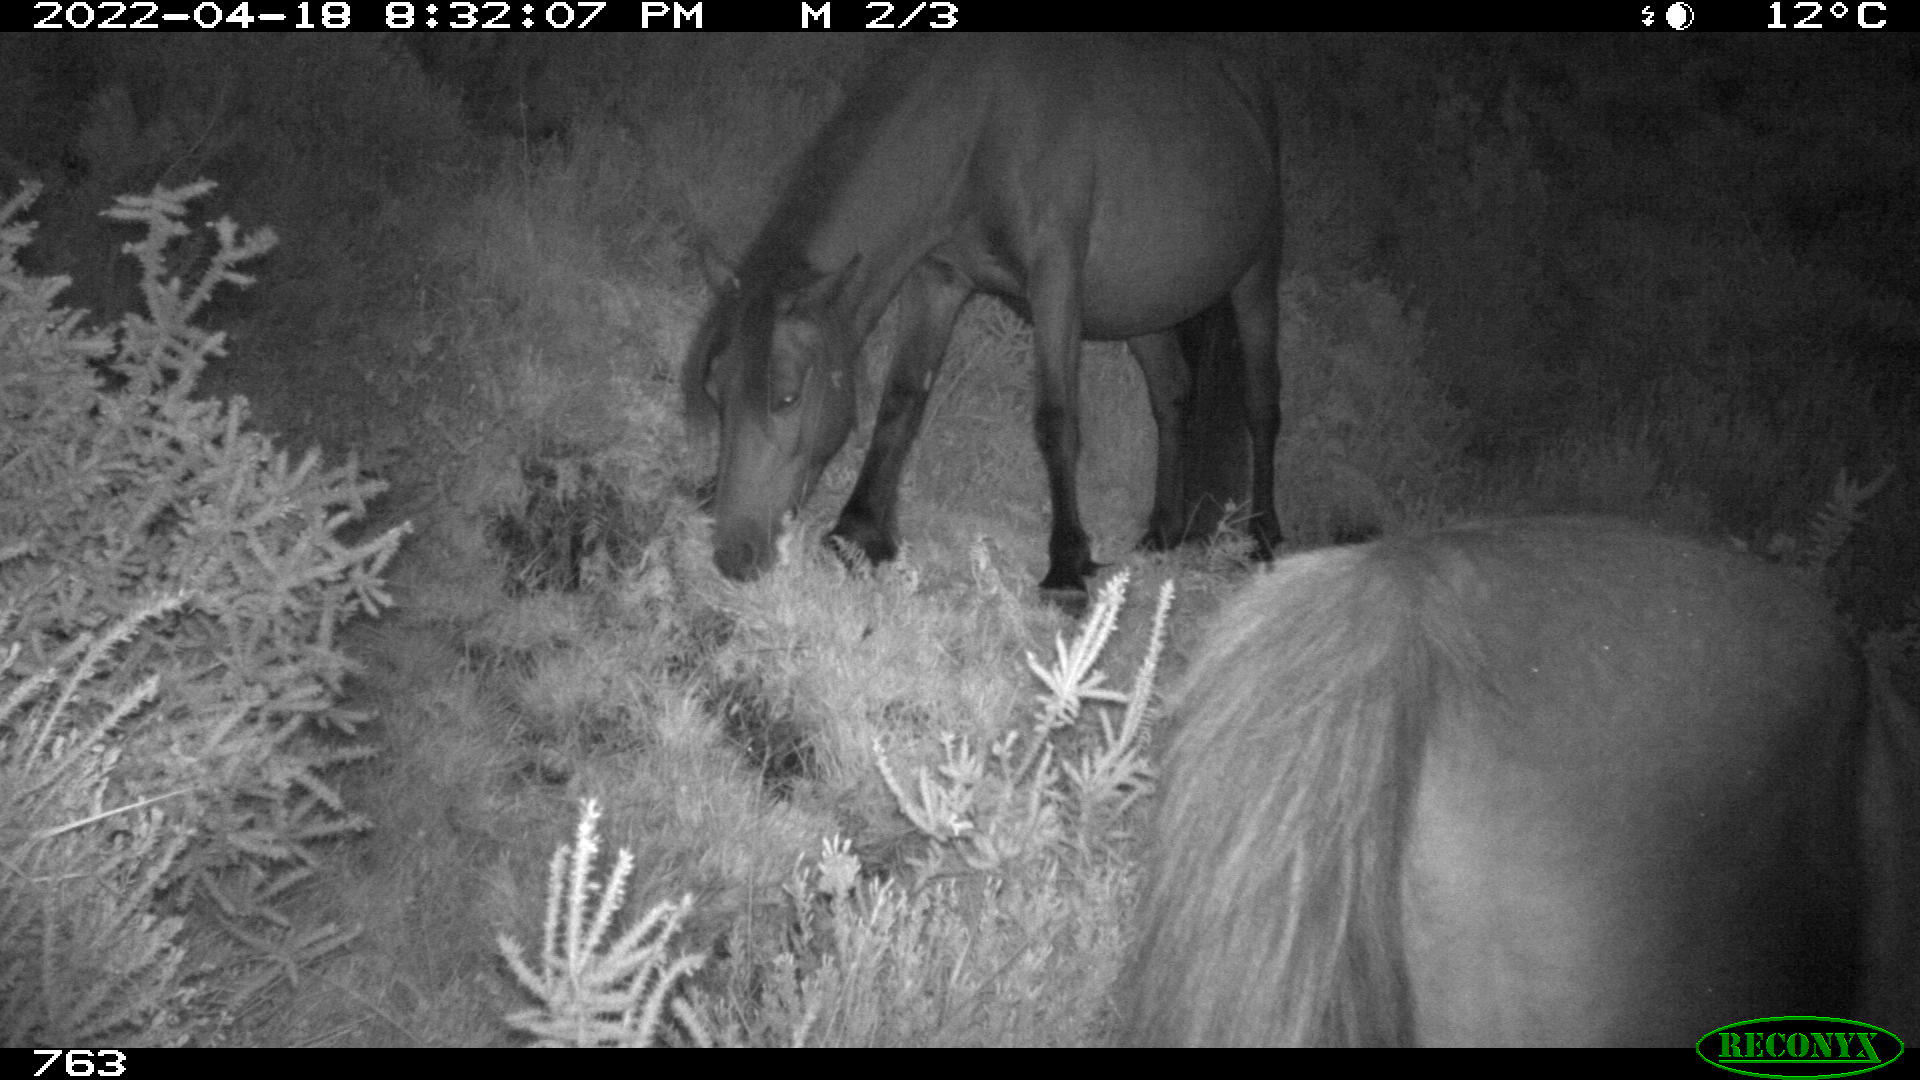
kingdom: Animalia
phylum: Chordata
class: Mammalia
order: Perissodactyla
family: Equidae
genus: Equus
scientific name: Equus caballus
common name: Horse
